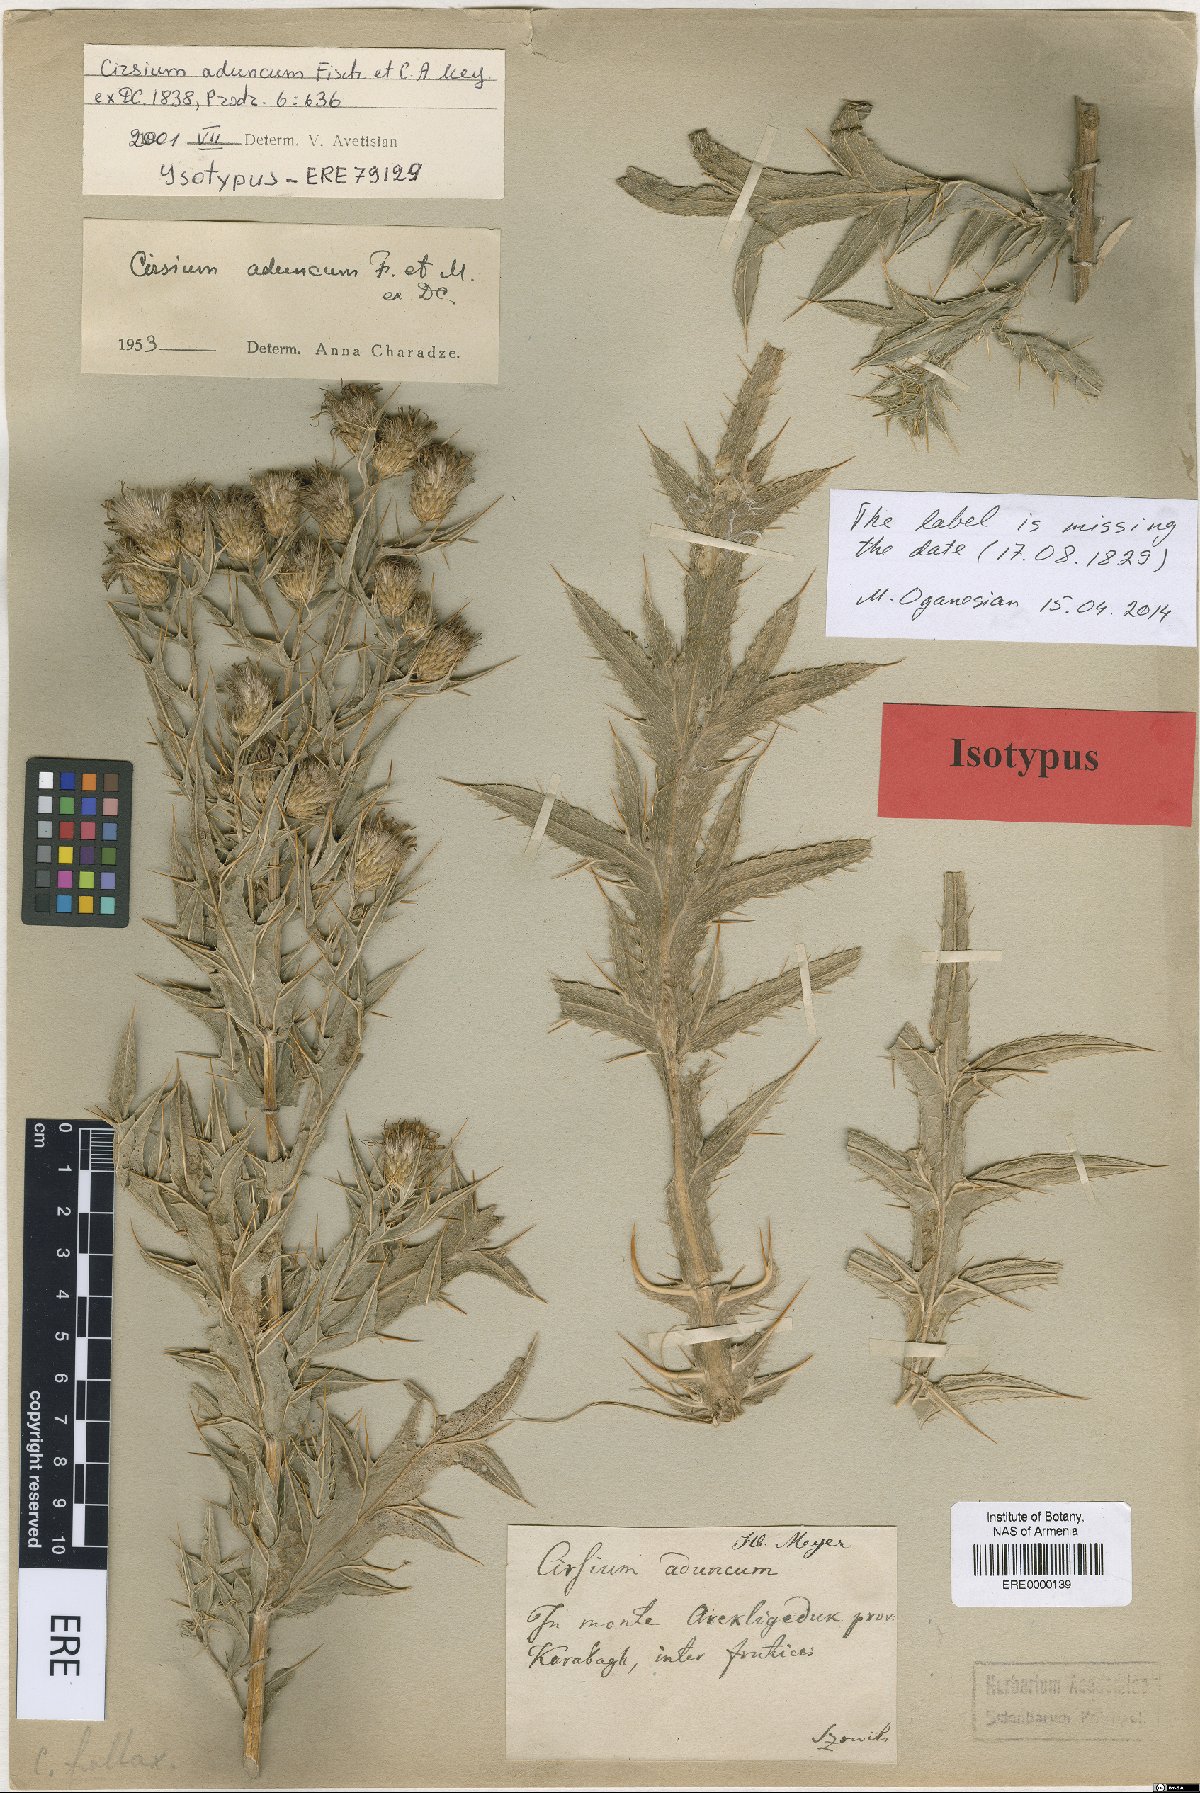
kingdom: Plantae
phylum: Tracheophyta
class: Magnoliopsida
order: Asterales
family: Asteraceae
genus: Lophiolepis
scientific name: Lophiolepis adunca
